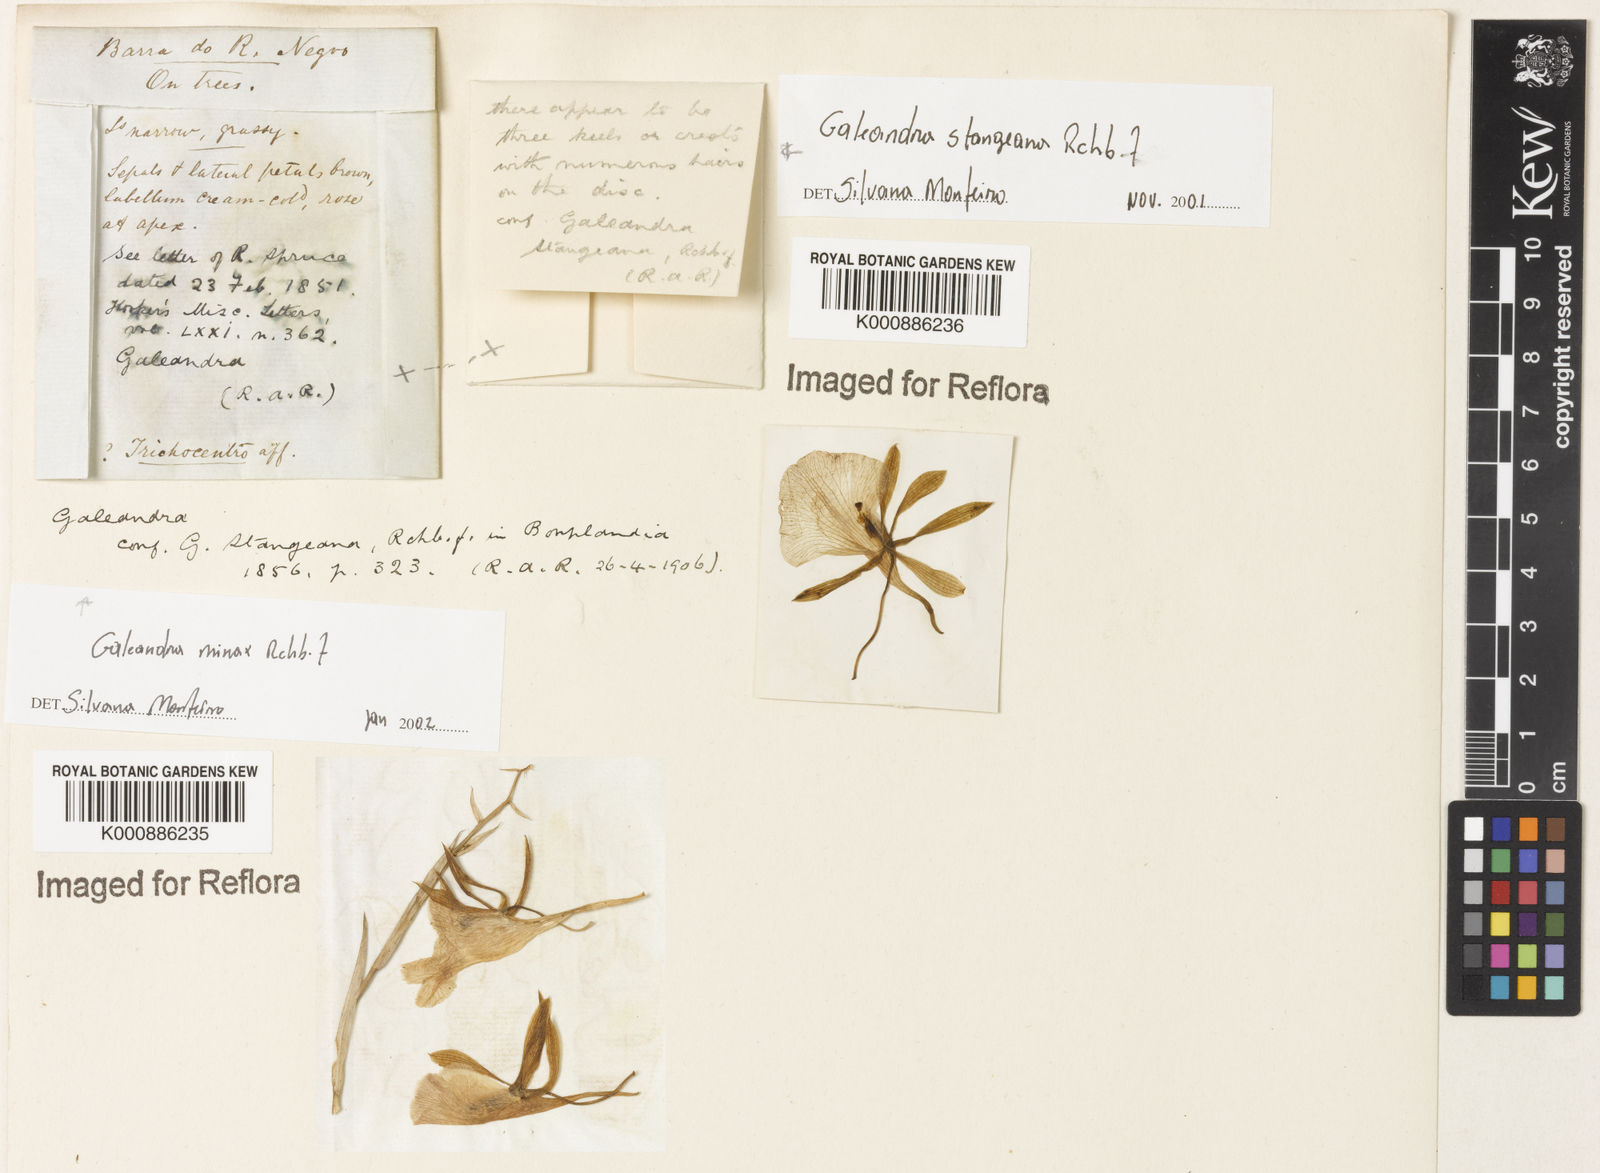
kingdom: Plantae
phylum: Tracheophyta
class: Liliopsida
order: Asparagales
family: Orchidaceae
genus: Galeandra
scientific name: Galeandra stangeana
